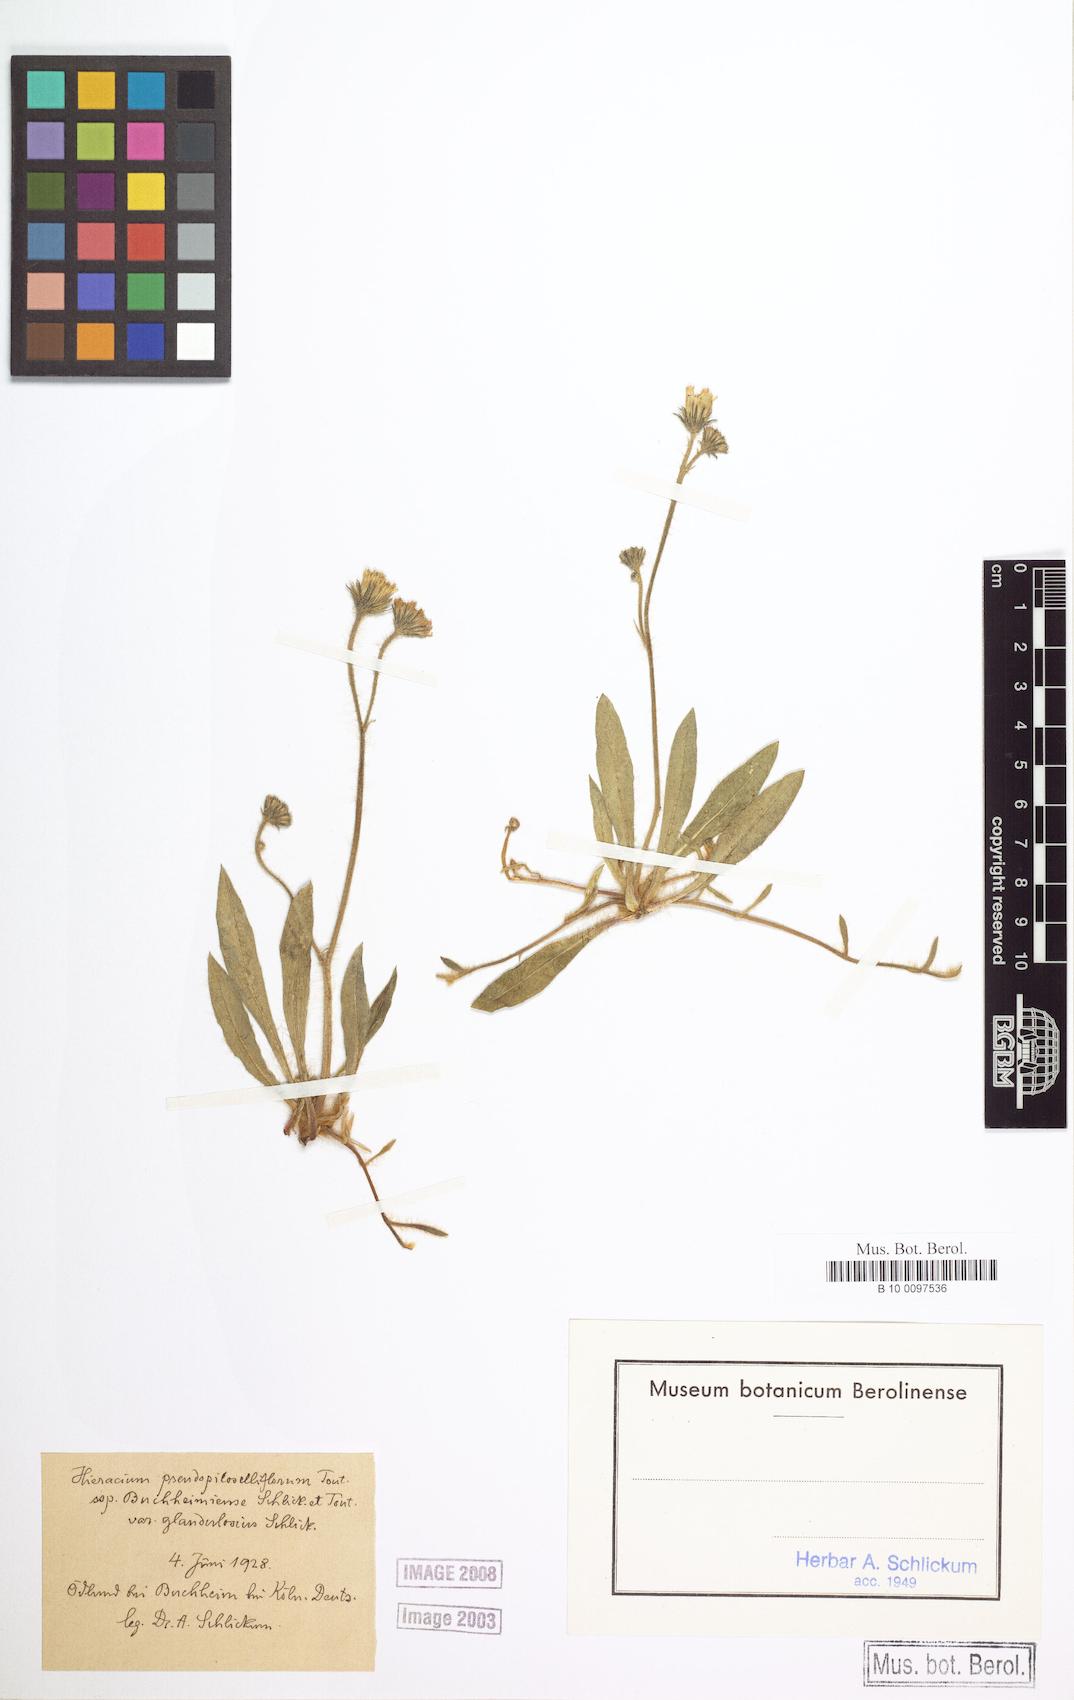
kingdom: Plantae
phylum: Tracheophyta
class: Magnoliopsida
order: Asterales
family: Asteraceae
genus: Pilosella
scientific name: Pilosella piloselliflora
